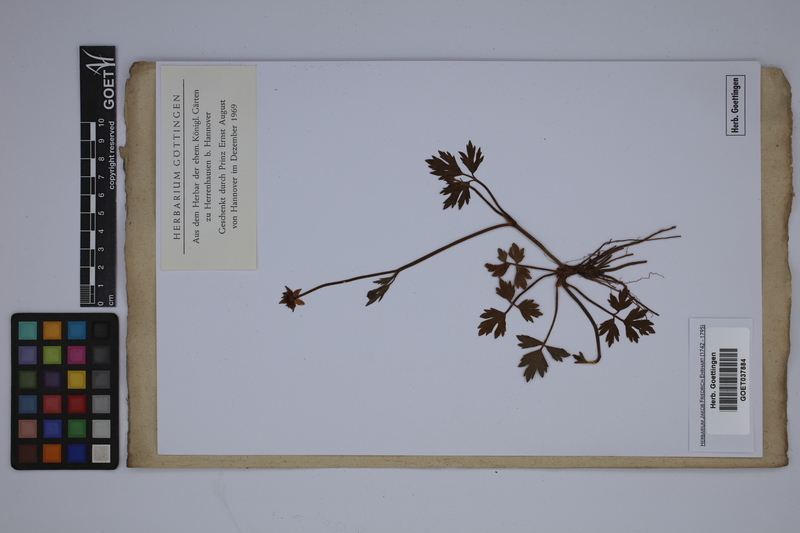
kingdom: Plantae
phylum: Tracheophyta
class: Magnoliopsida
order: Ranunculales
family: Ranunculaceae
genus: Ranunculus
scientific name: Ranunculus repens
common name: Creeping buttercup
